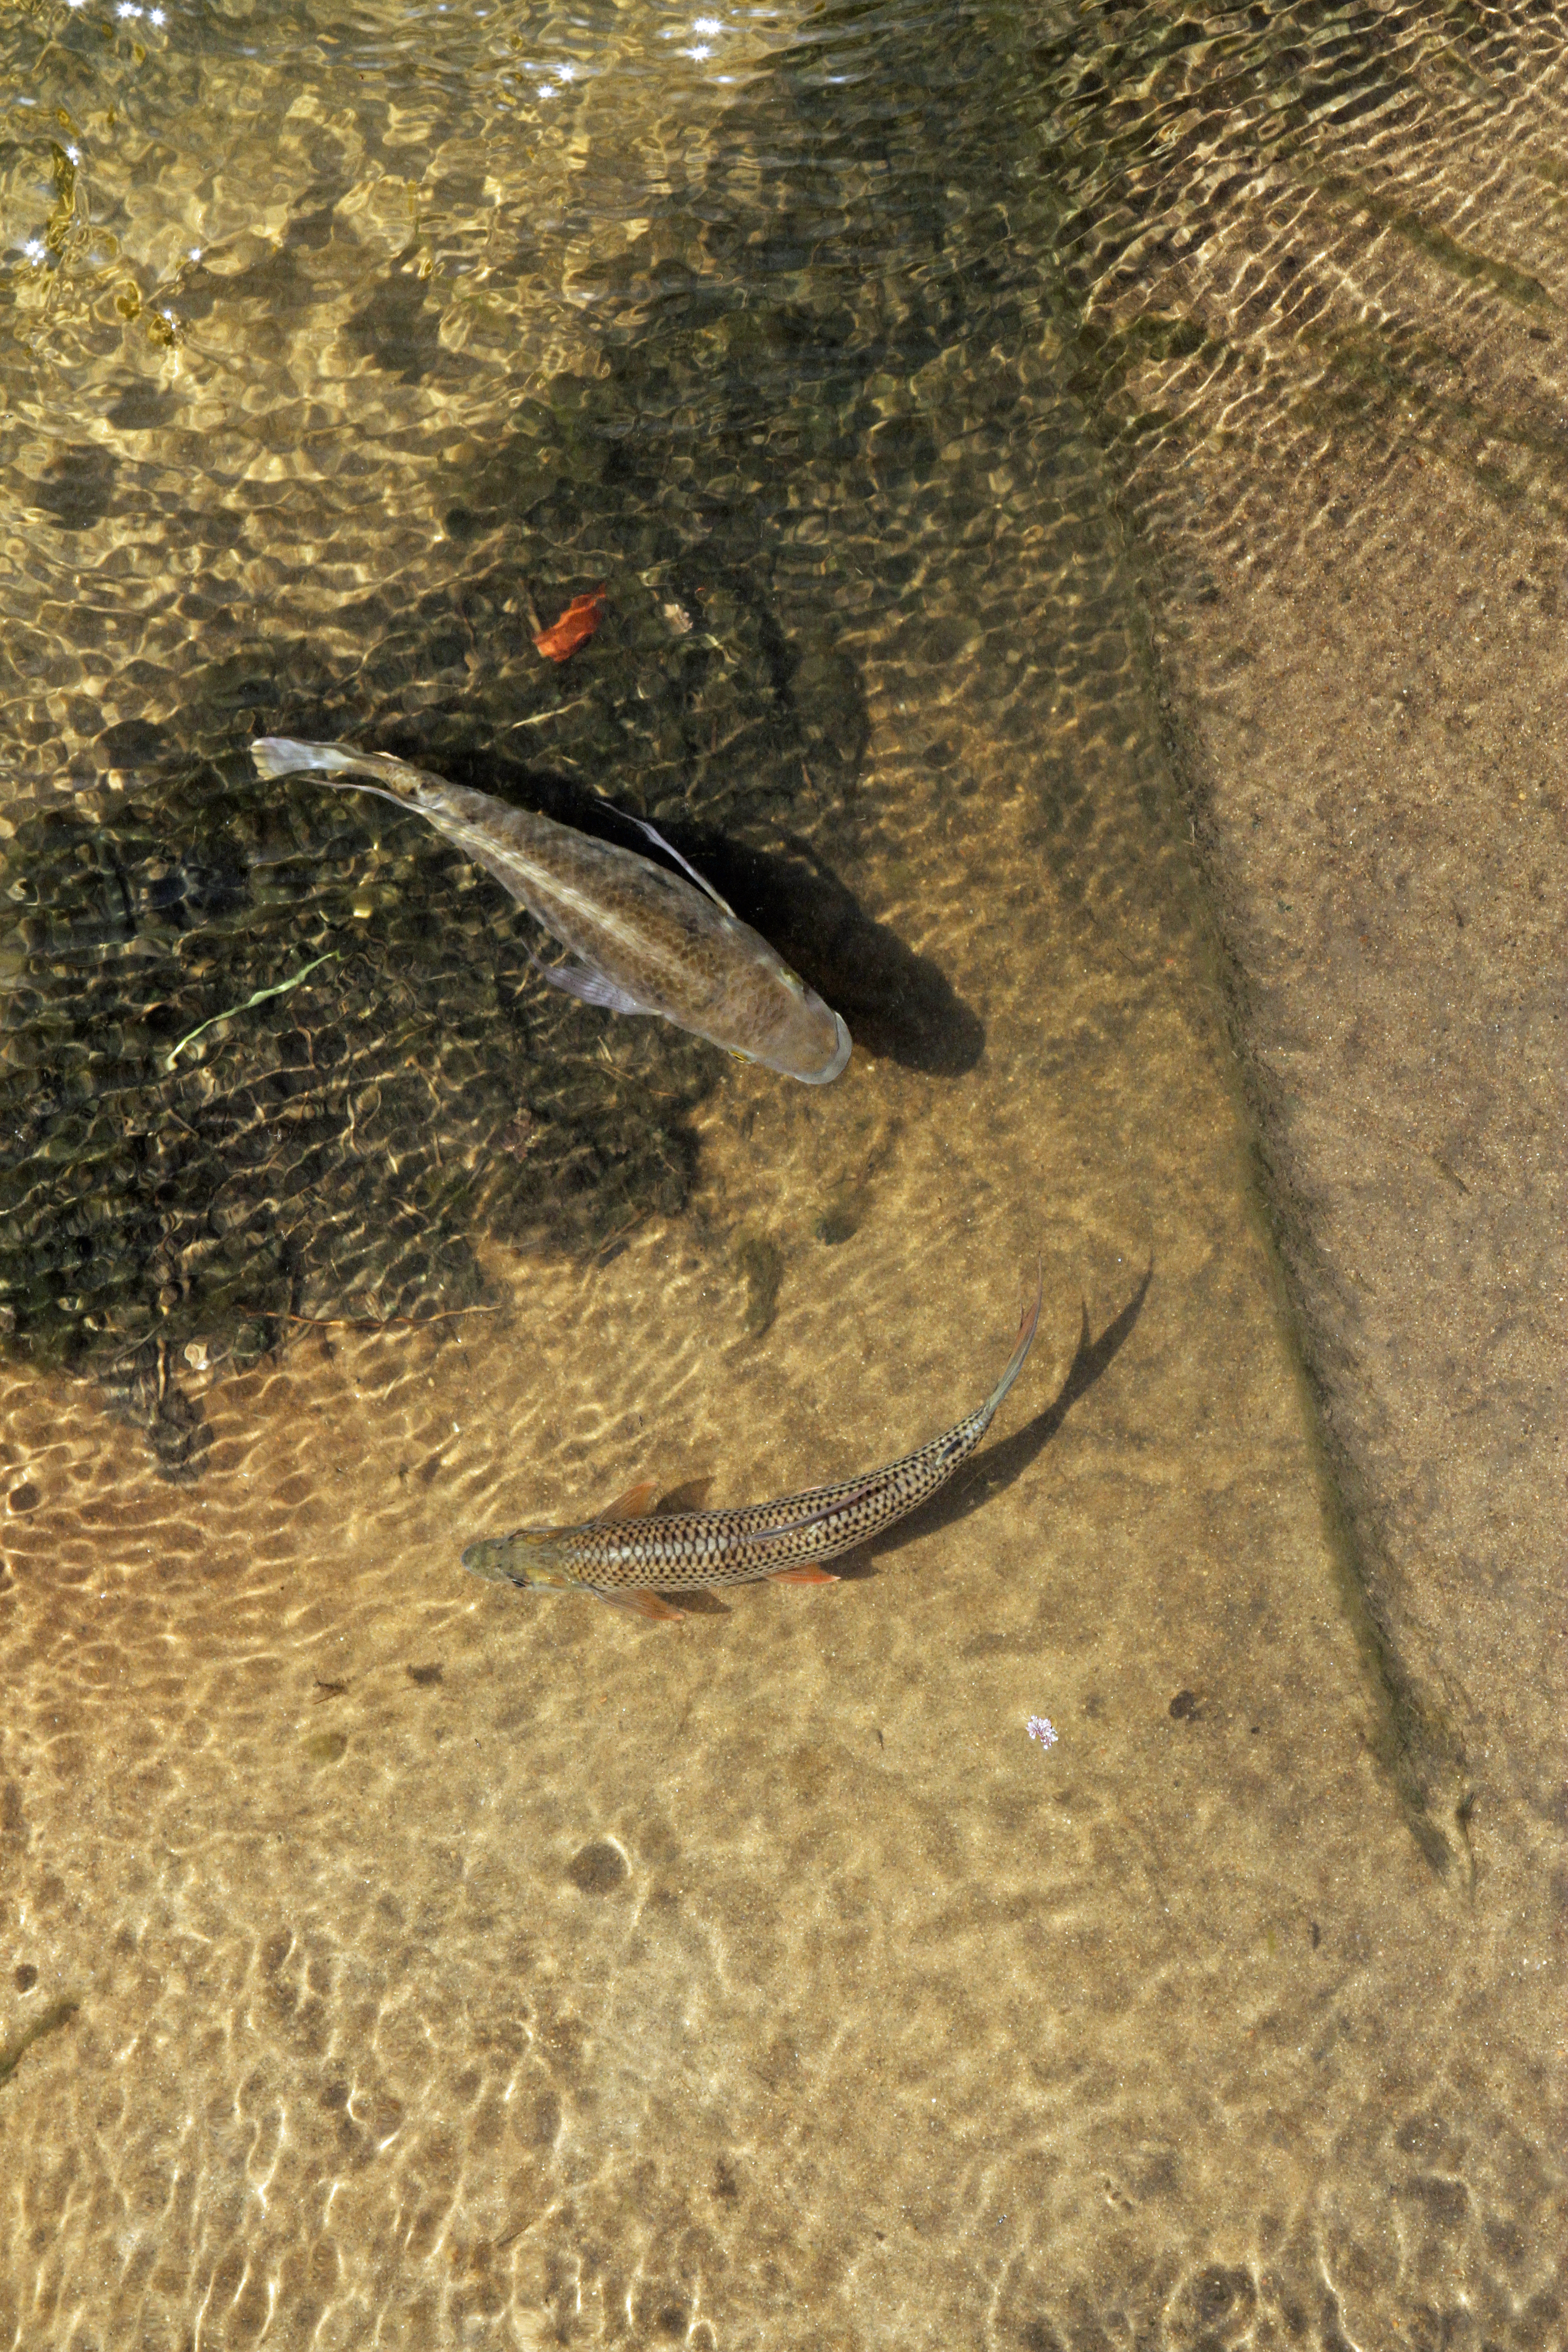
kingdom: Animalia
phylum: Chordata
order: Characiformes
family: Alestidae
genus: Hydrocynus
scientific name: Hydrocynus vittatus
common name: Tigerfish
